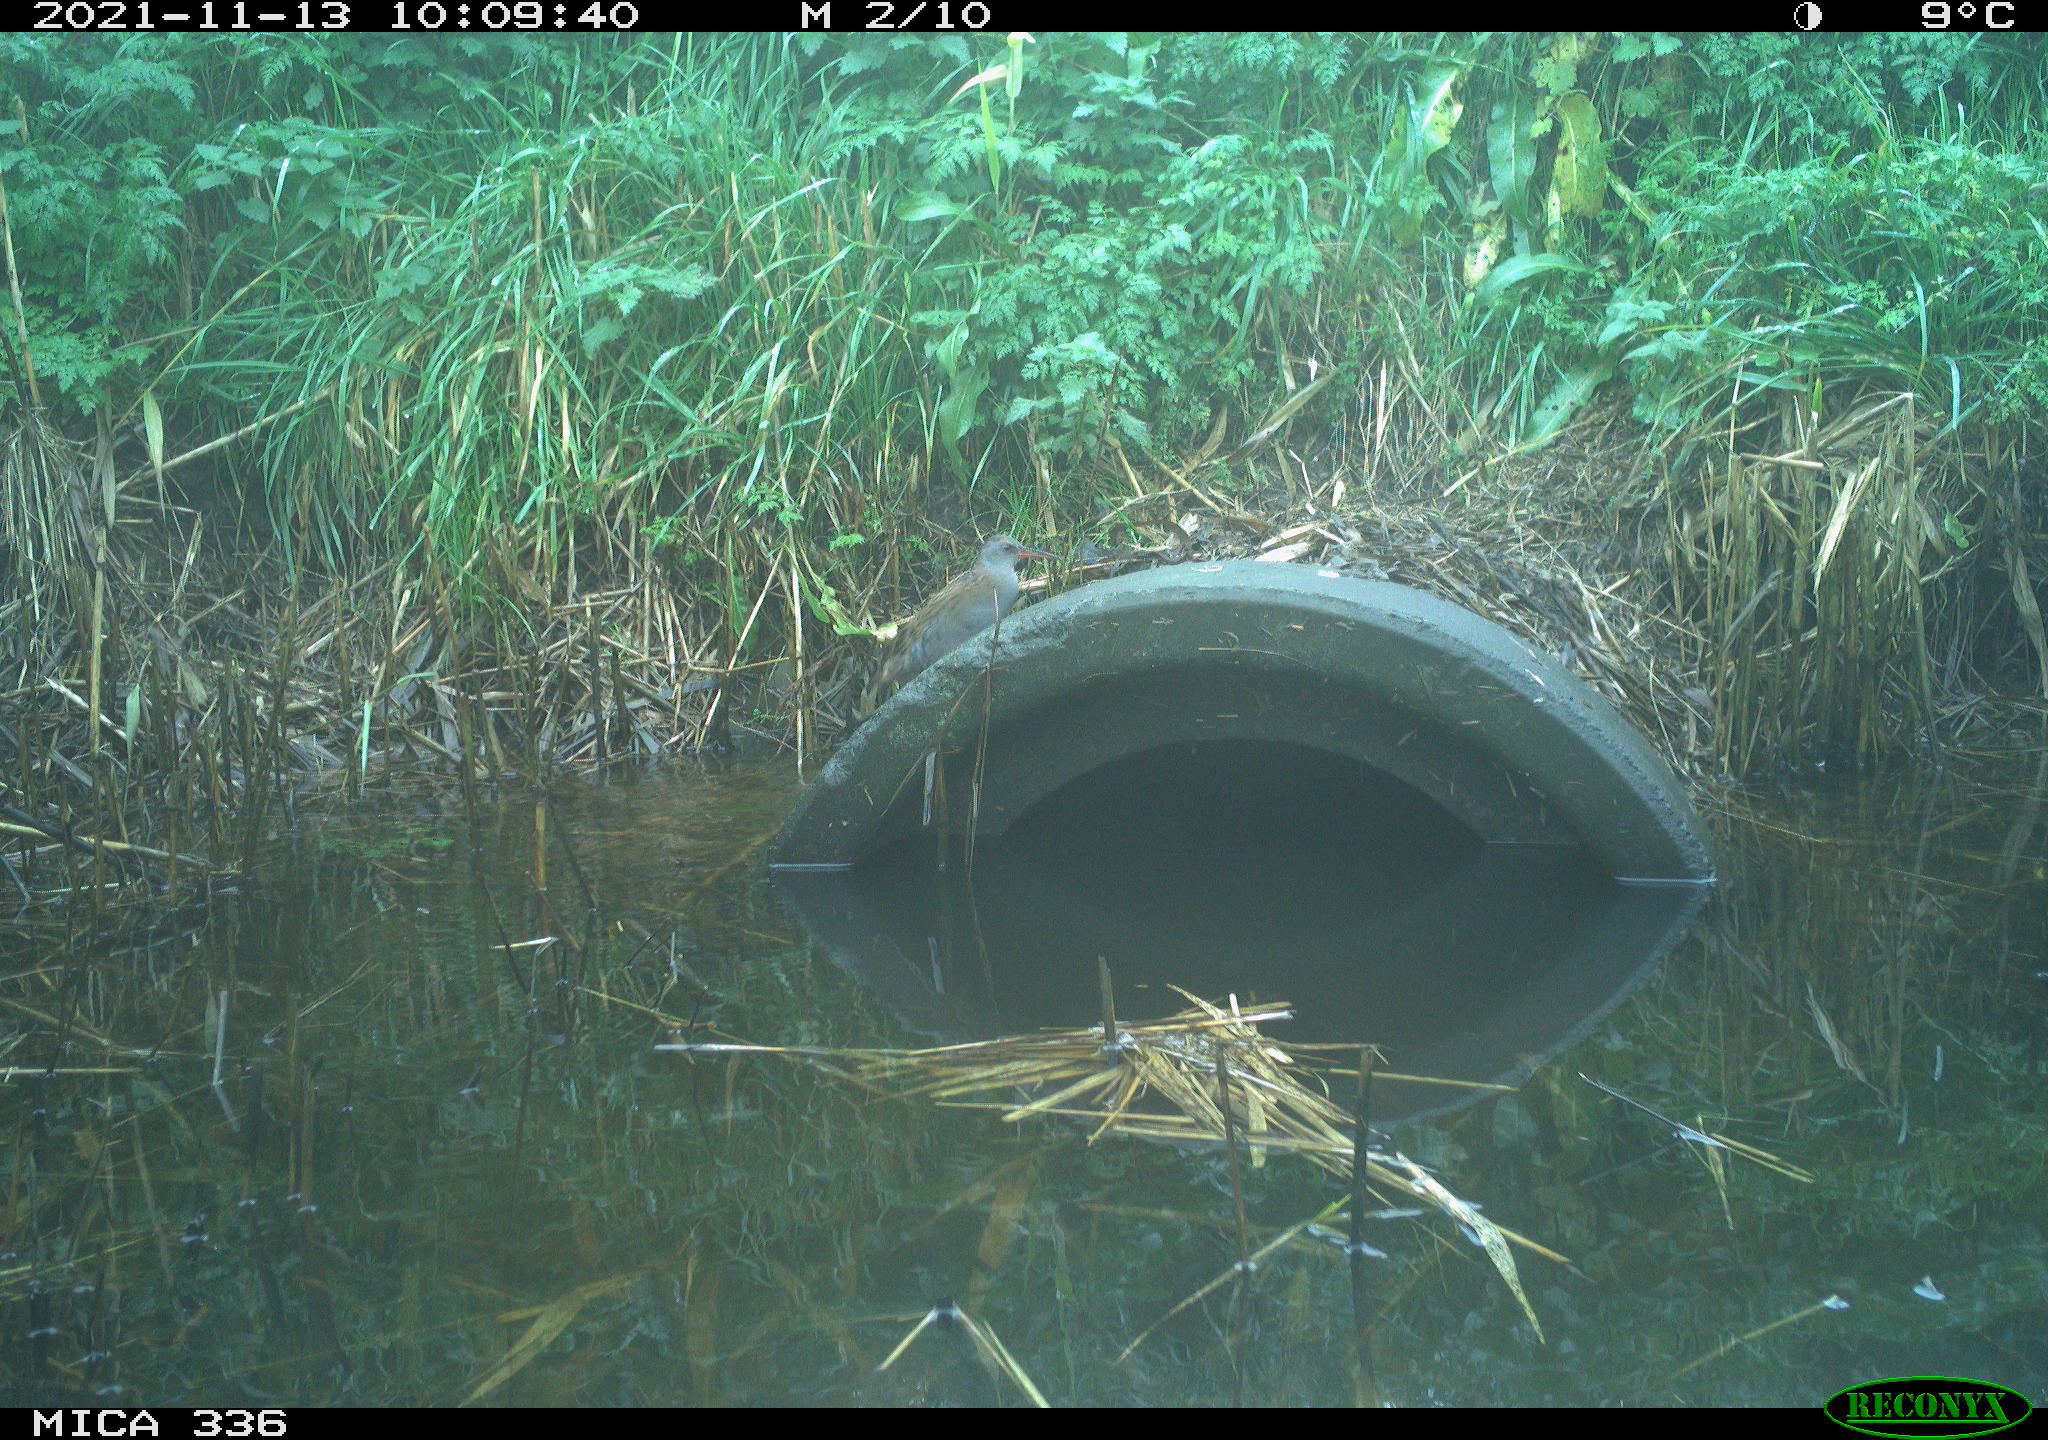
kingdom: Animalia
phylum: Chordata
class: Aves
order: Gruiformes
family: Rallidae
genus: Gallinula
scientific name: Gallinula chloropus
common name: Common moorhen
